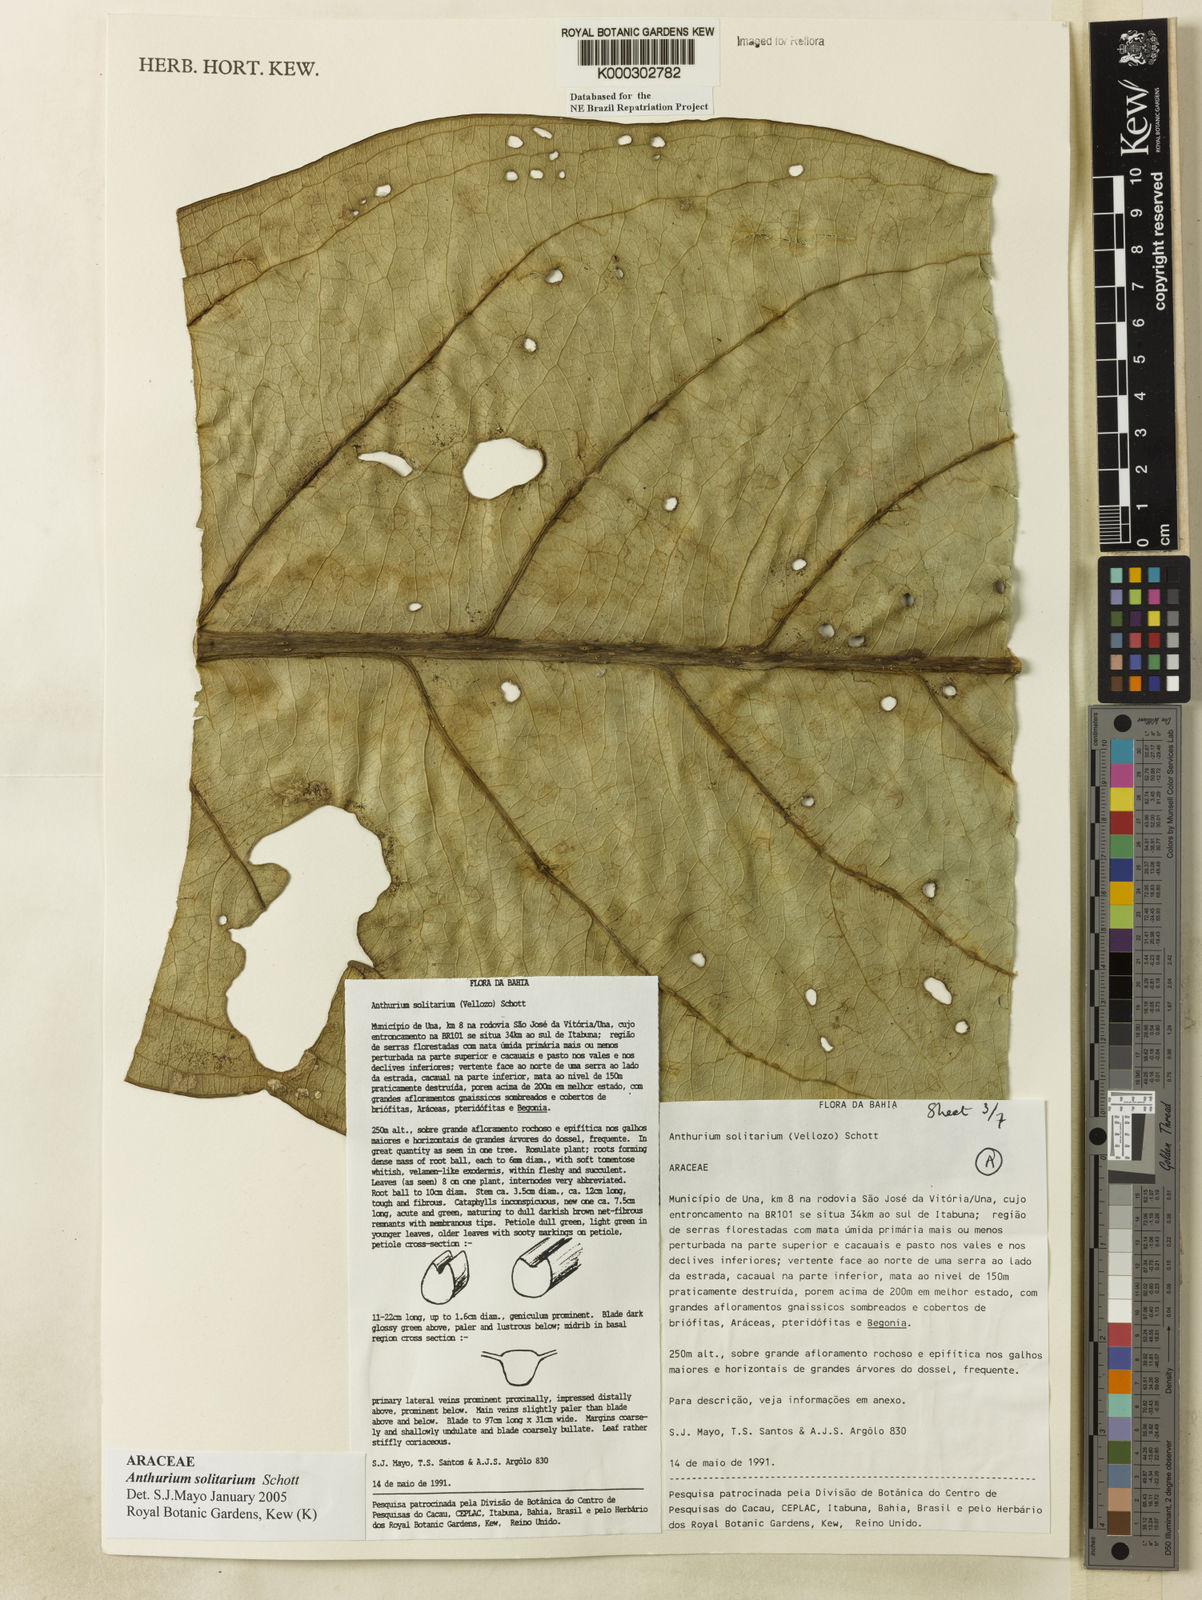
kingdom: Plantae
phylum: Tracheophyta
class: Liliopsida
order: Alismatales
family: Araceae
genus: Anthurium
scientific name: Anthurium solitarium
